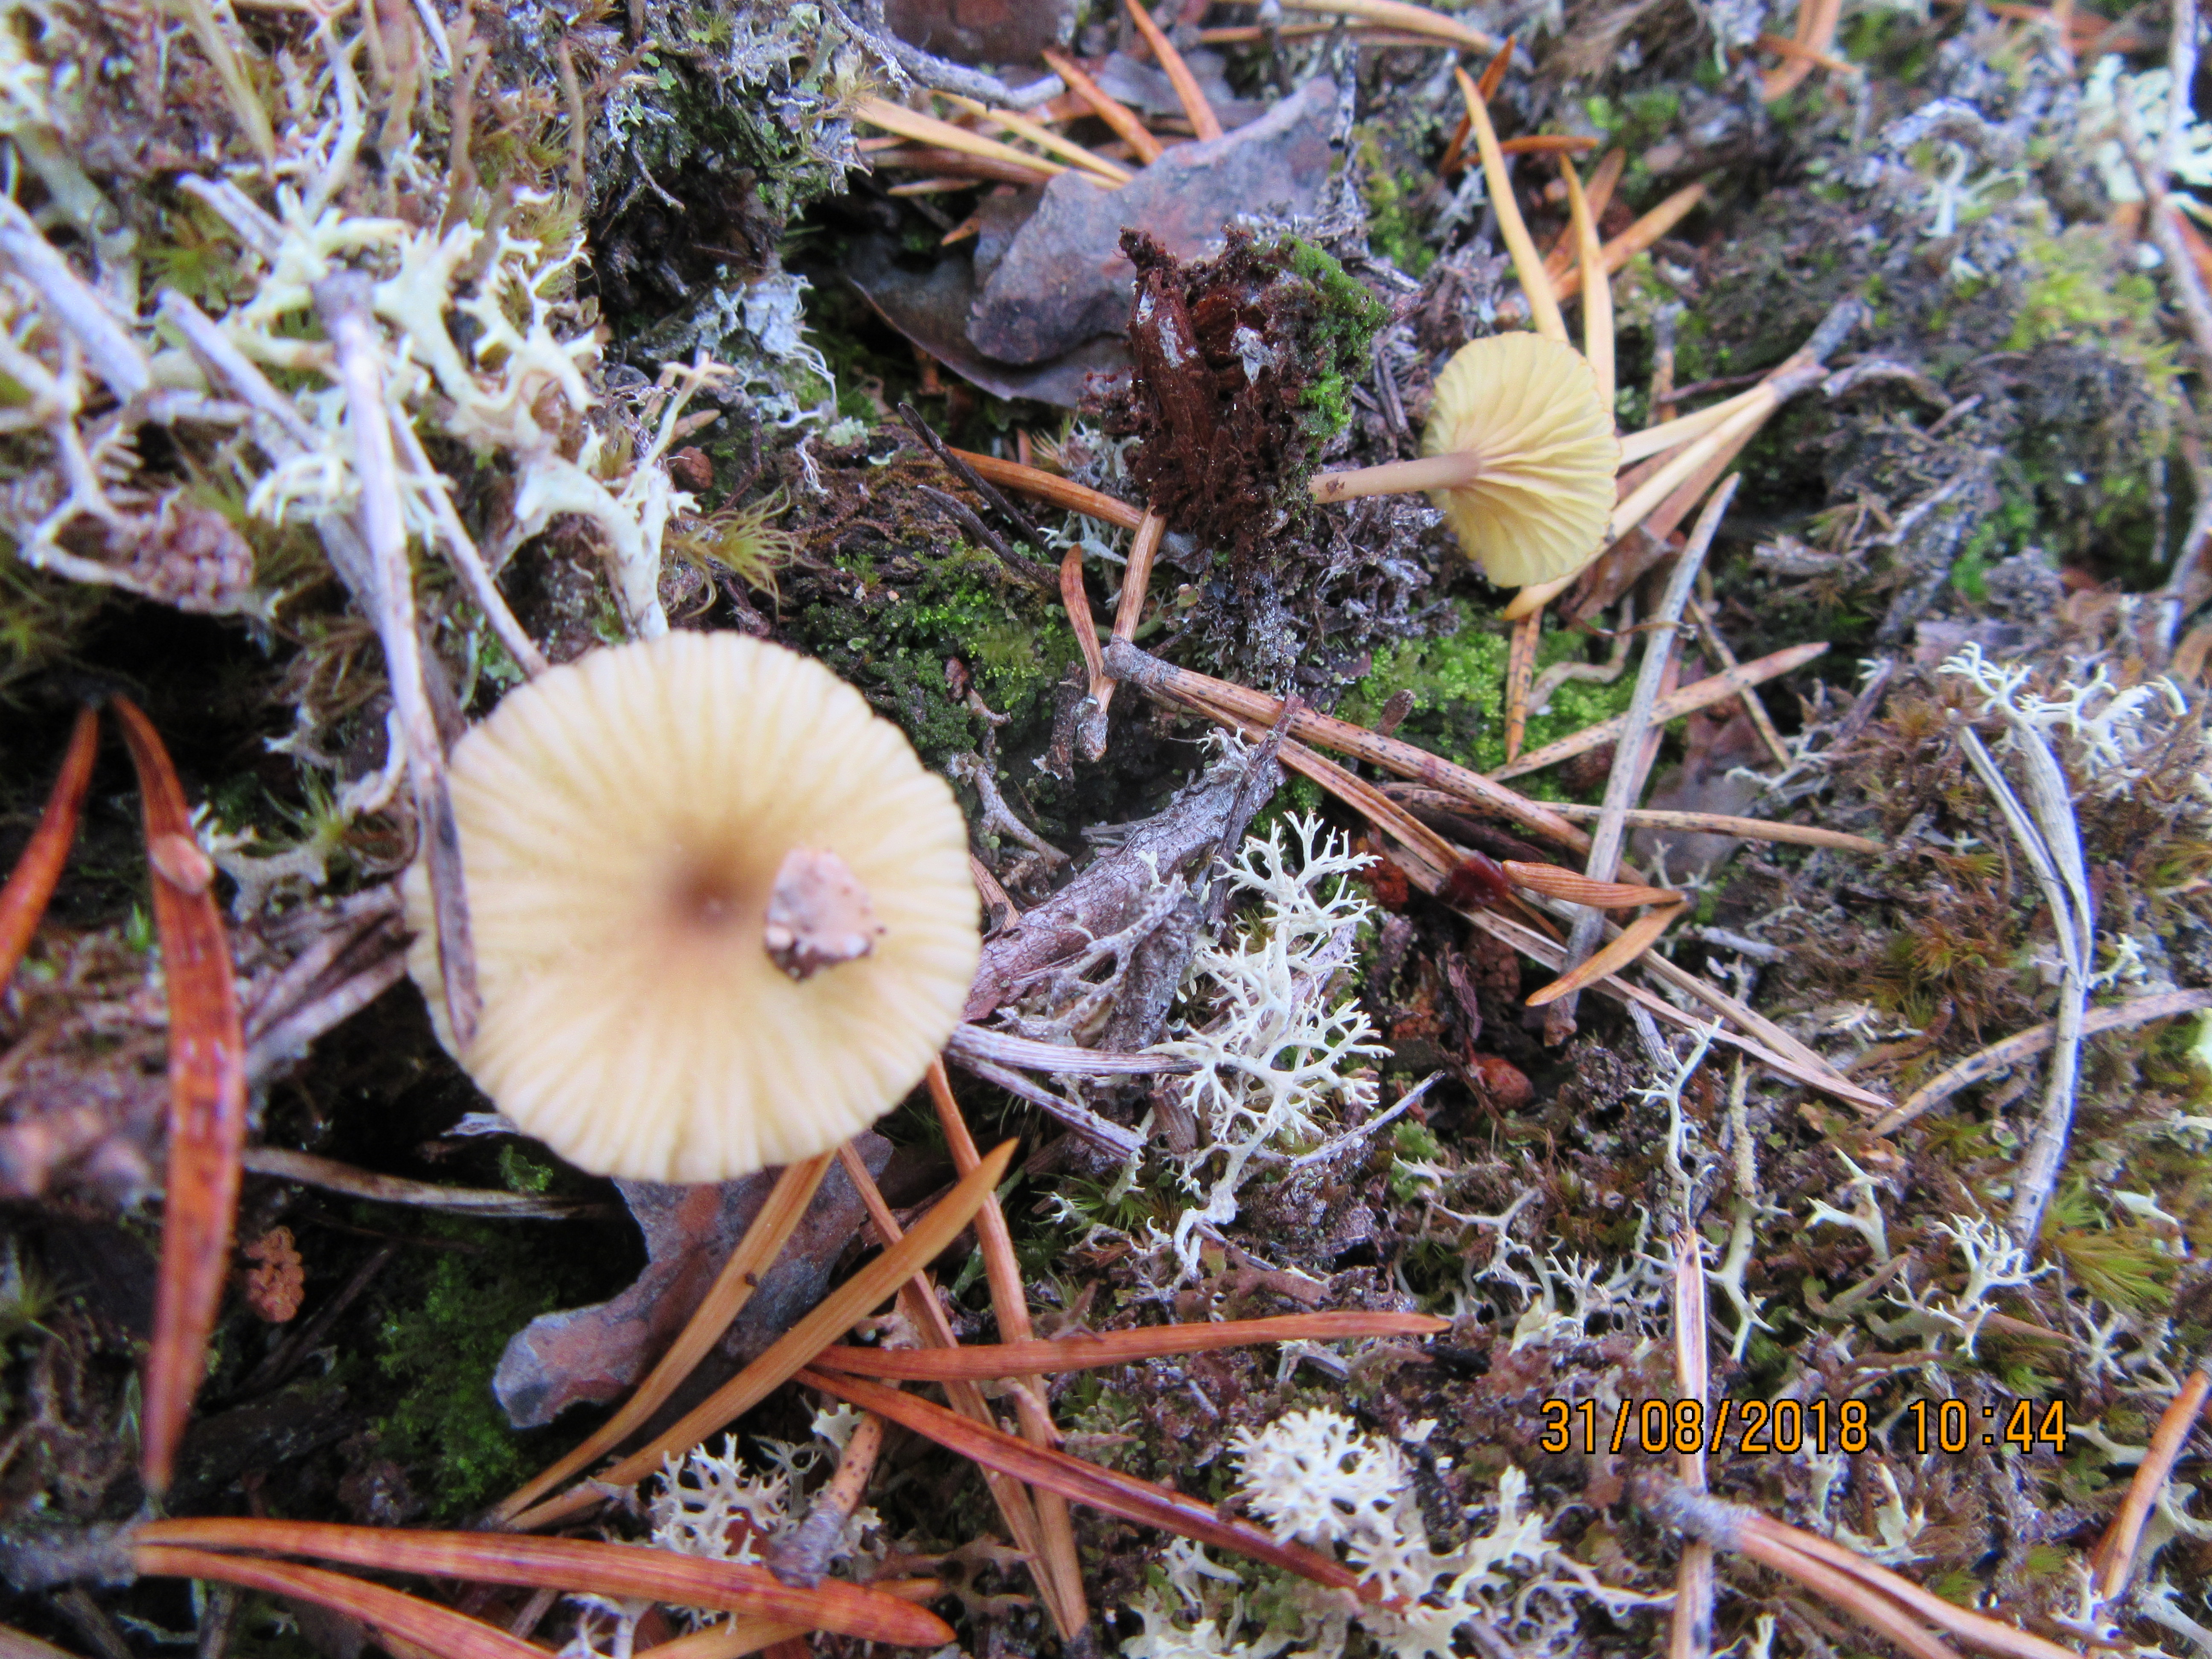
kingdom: Fungi
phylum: Basidiomycota
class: Agaricomycetes
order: Agaricales
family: Hygrophoraceae
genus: Lichenomphalia
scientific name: Lichenomphalia umbellifera
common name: Heath navel
